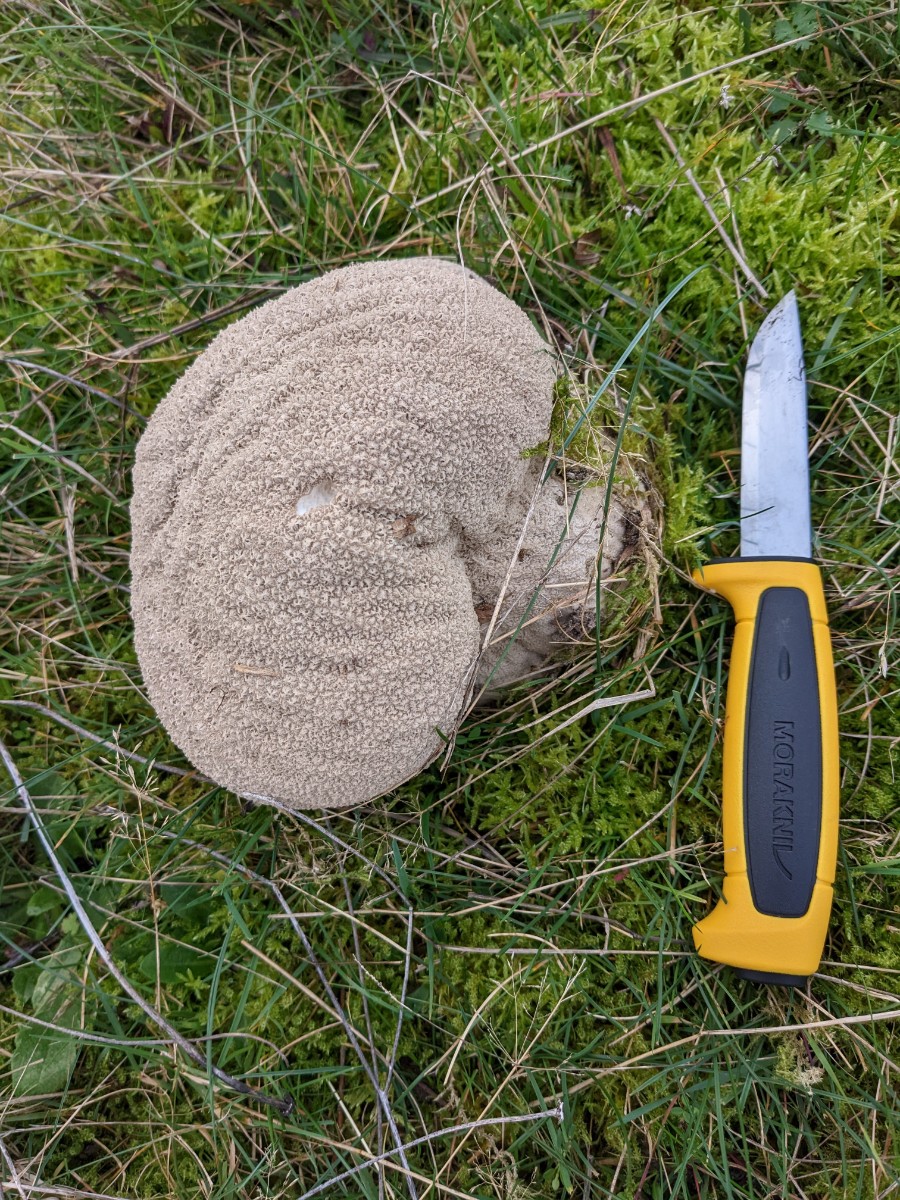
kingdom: Fungi
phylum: Basidiomycota
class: Agaricomycetes
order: Agaricales
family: Lycoperdaceae
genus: Bovistella
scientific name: Bovistella utriformis
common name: skællet støvbold
